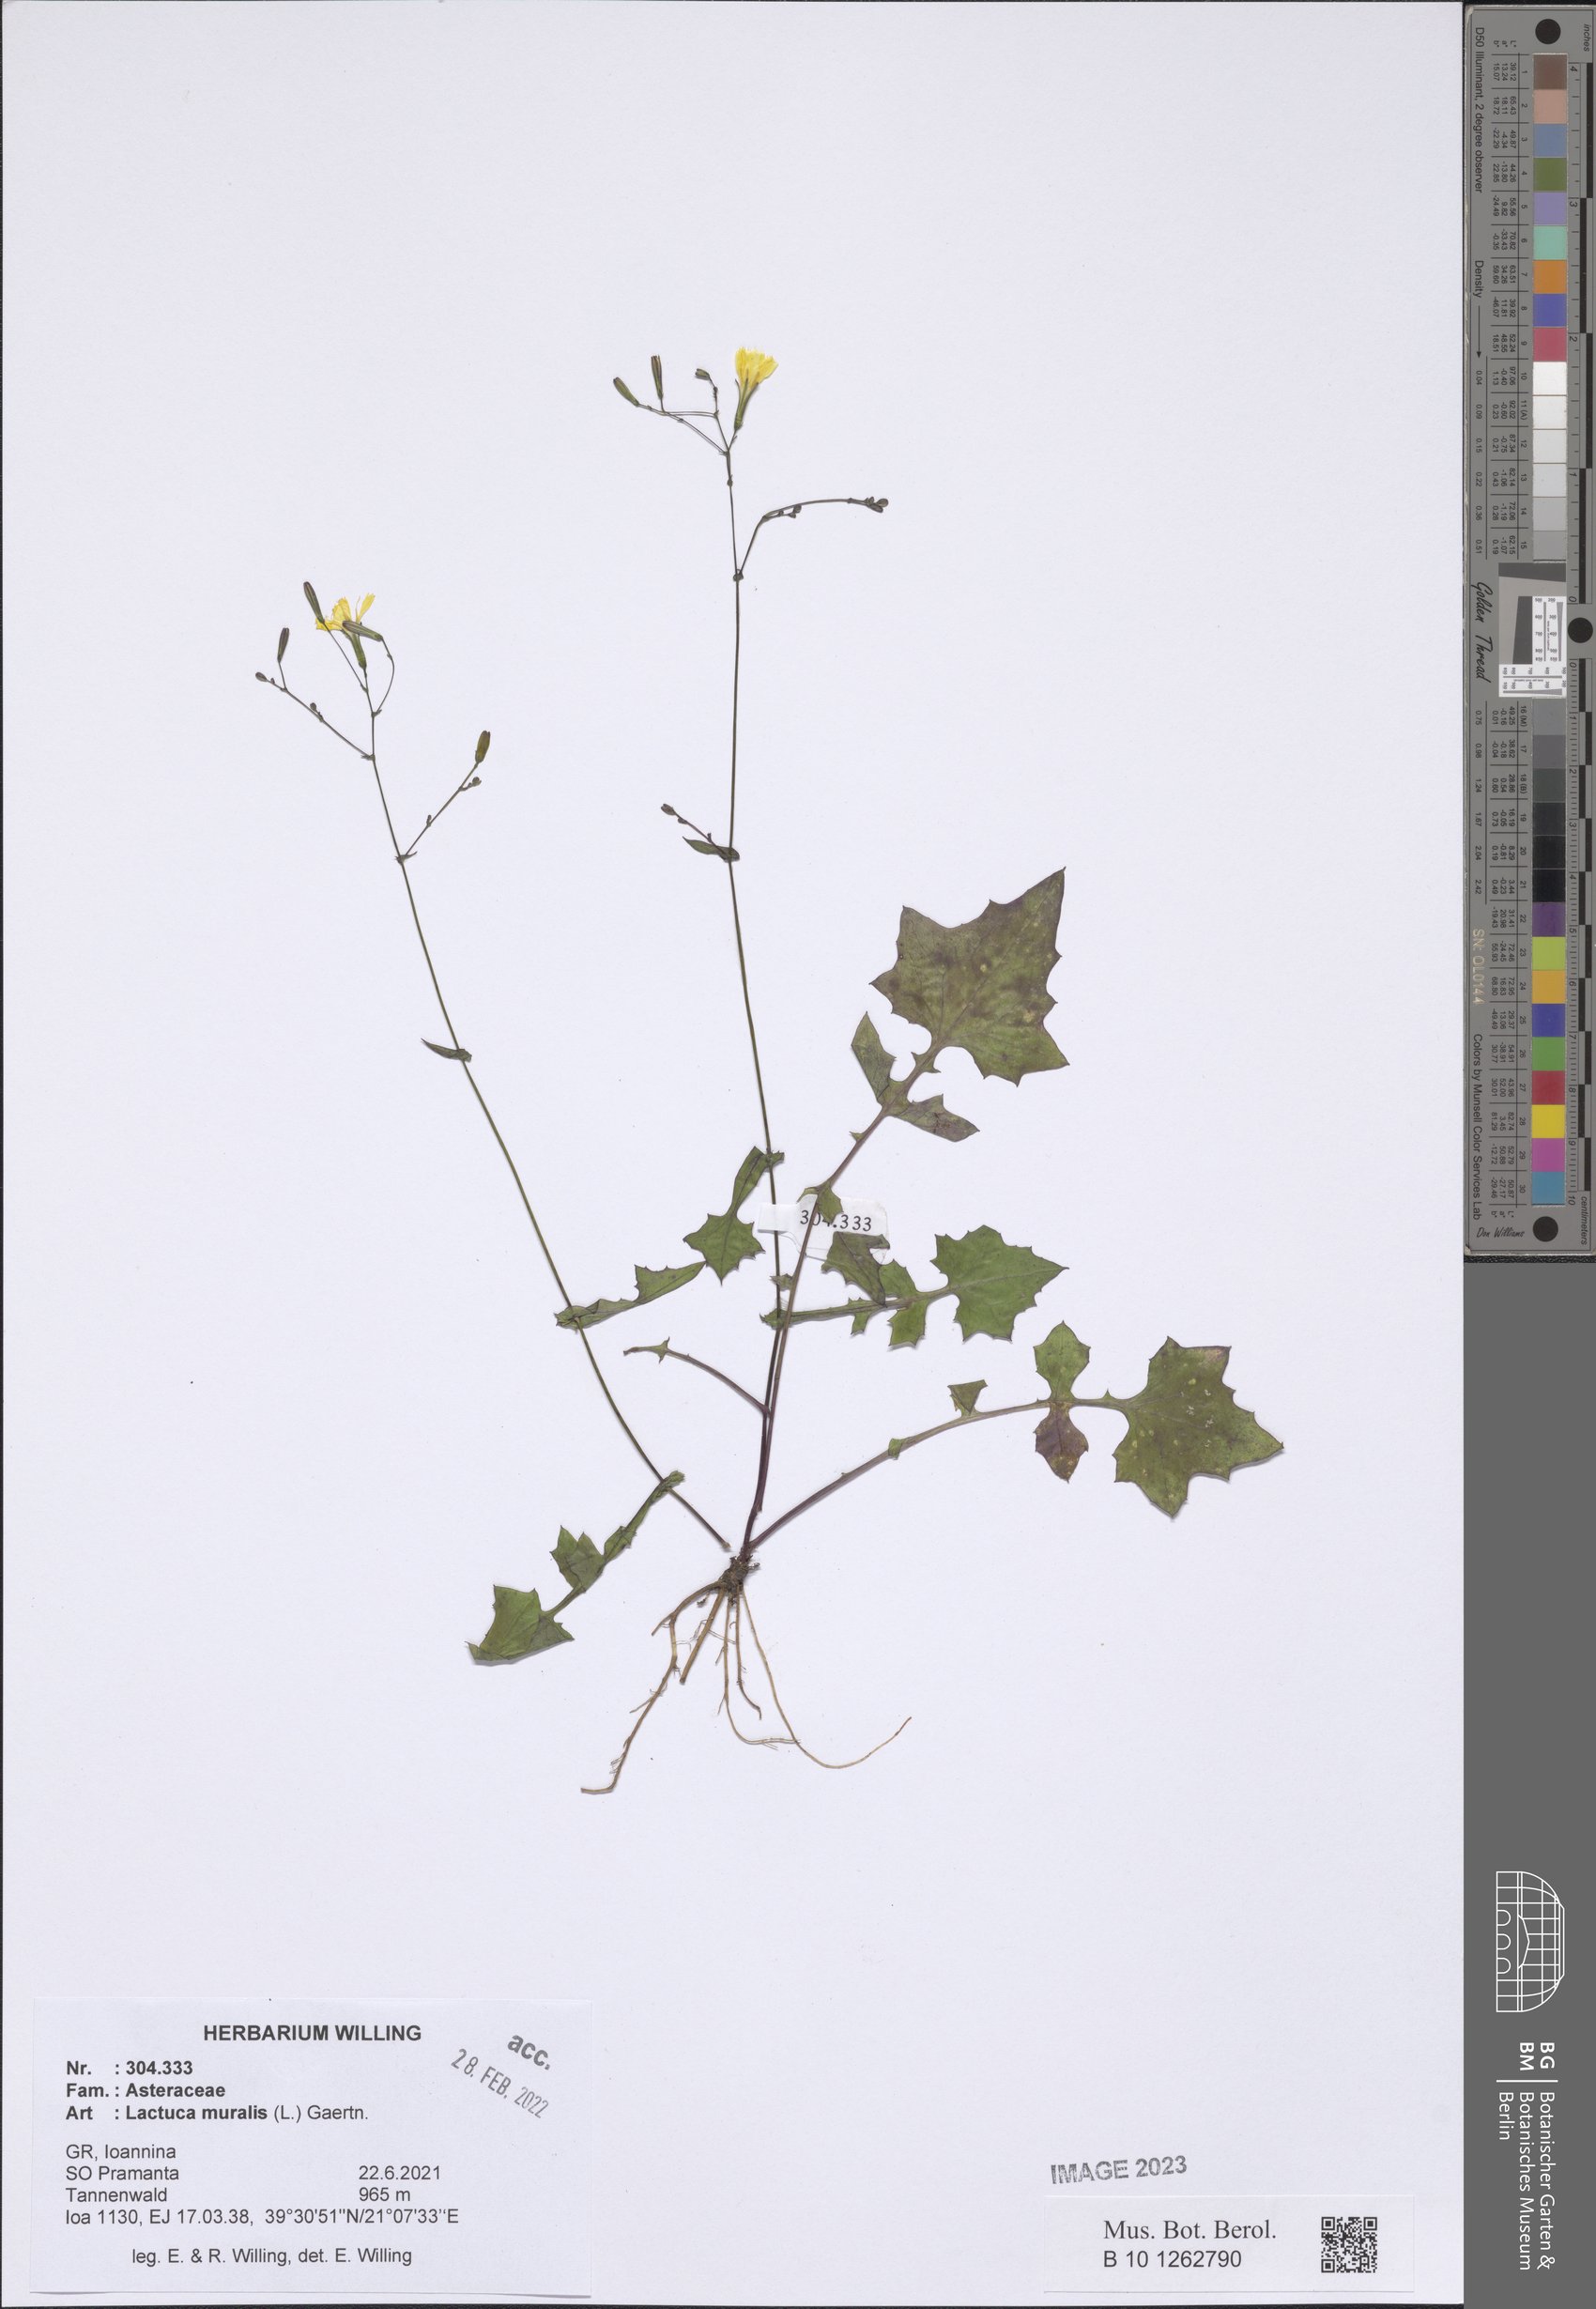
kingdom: Plantae
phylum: Tracheophyta
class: Magnoliopsida
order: Asterales
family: Asteraceae
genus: Mycelis
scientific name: Mycelis muralis
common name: Wall lettuce
